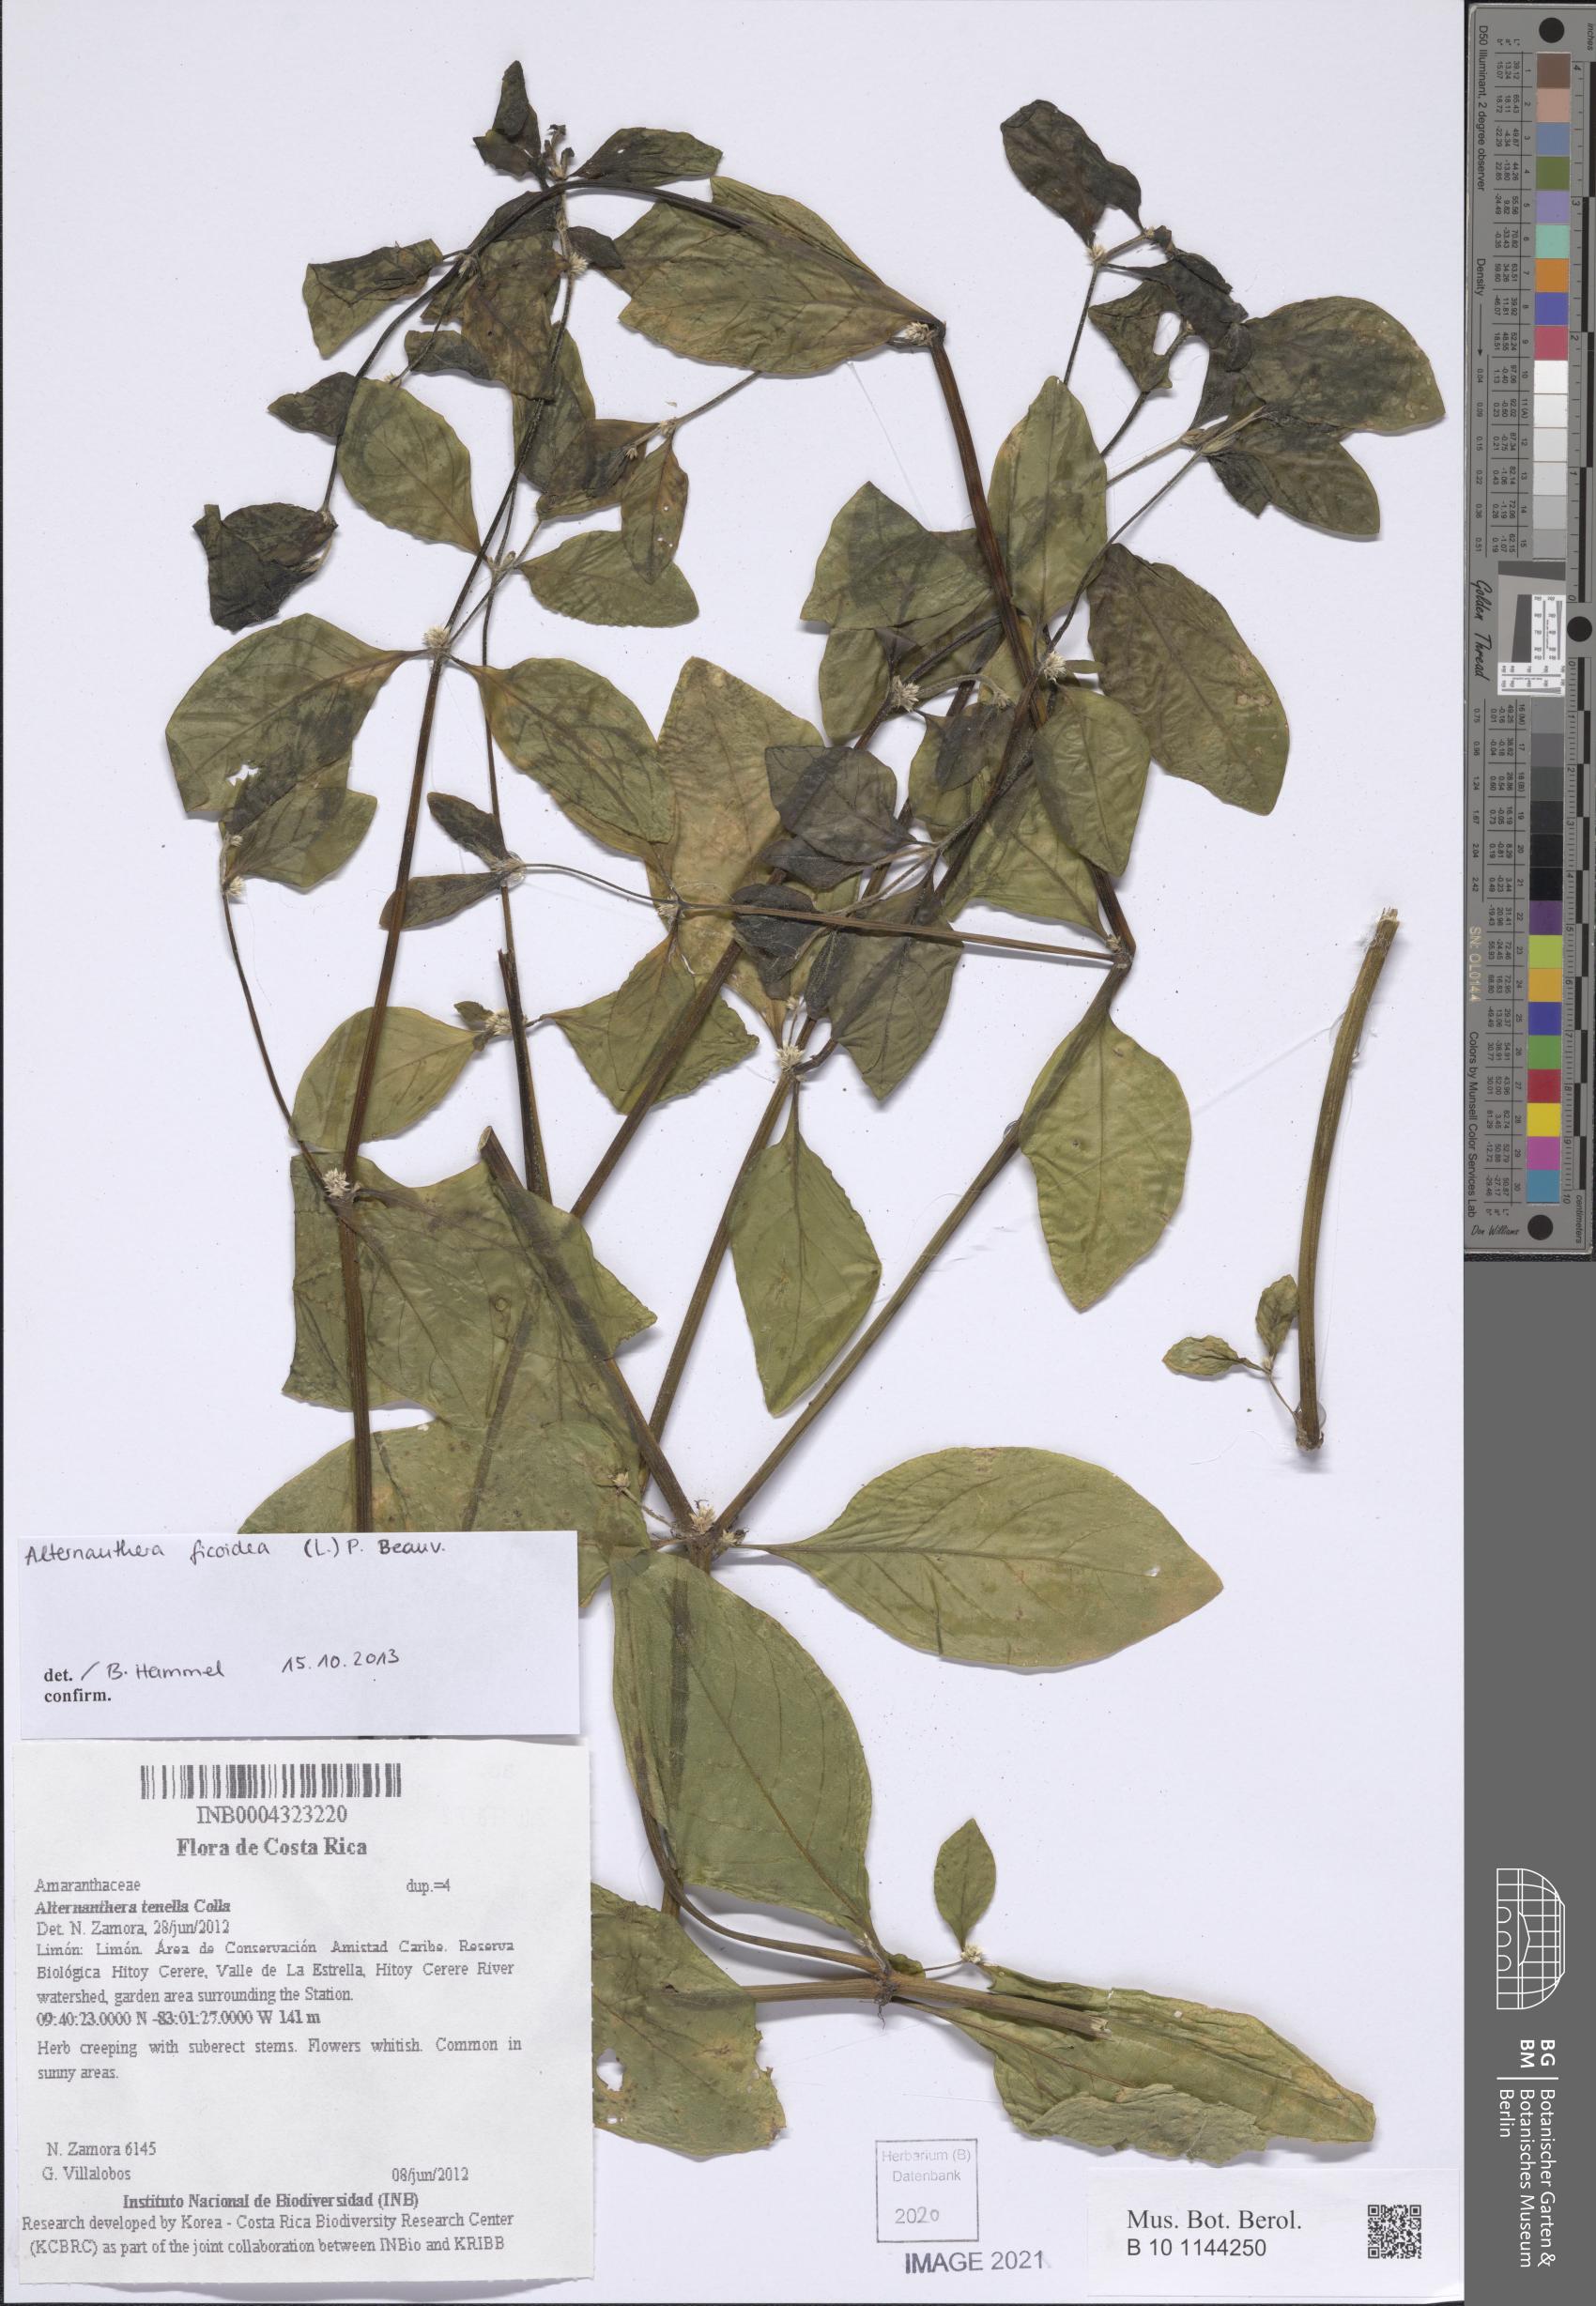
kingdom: Plantae
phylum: Tracheophyta
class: Magnoliopsida
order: Caryophyllales
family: Amaranthaceae
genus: Alternanthera
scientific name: Alternanthera ficoidea
